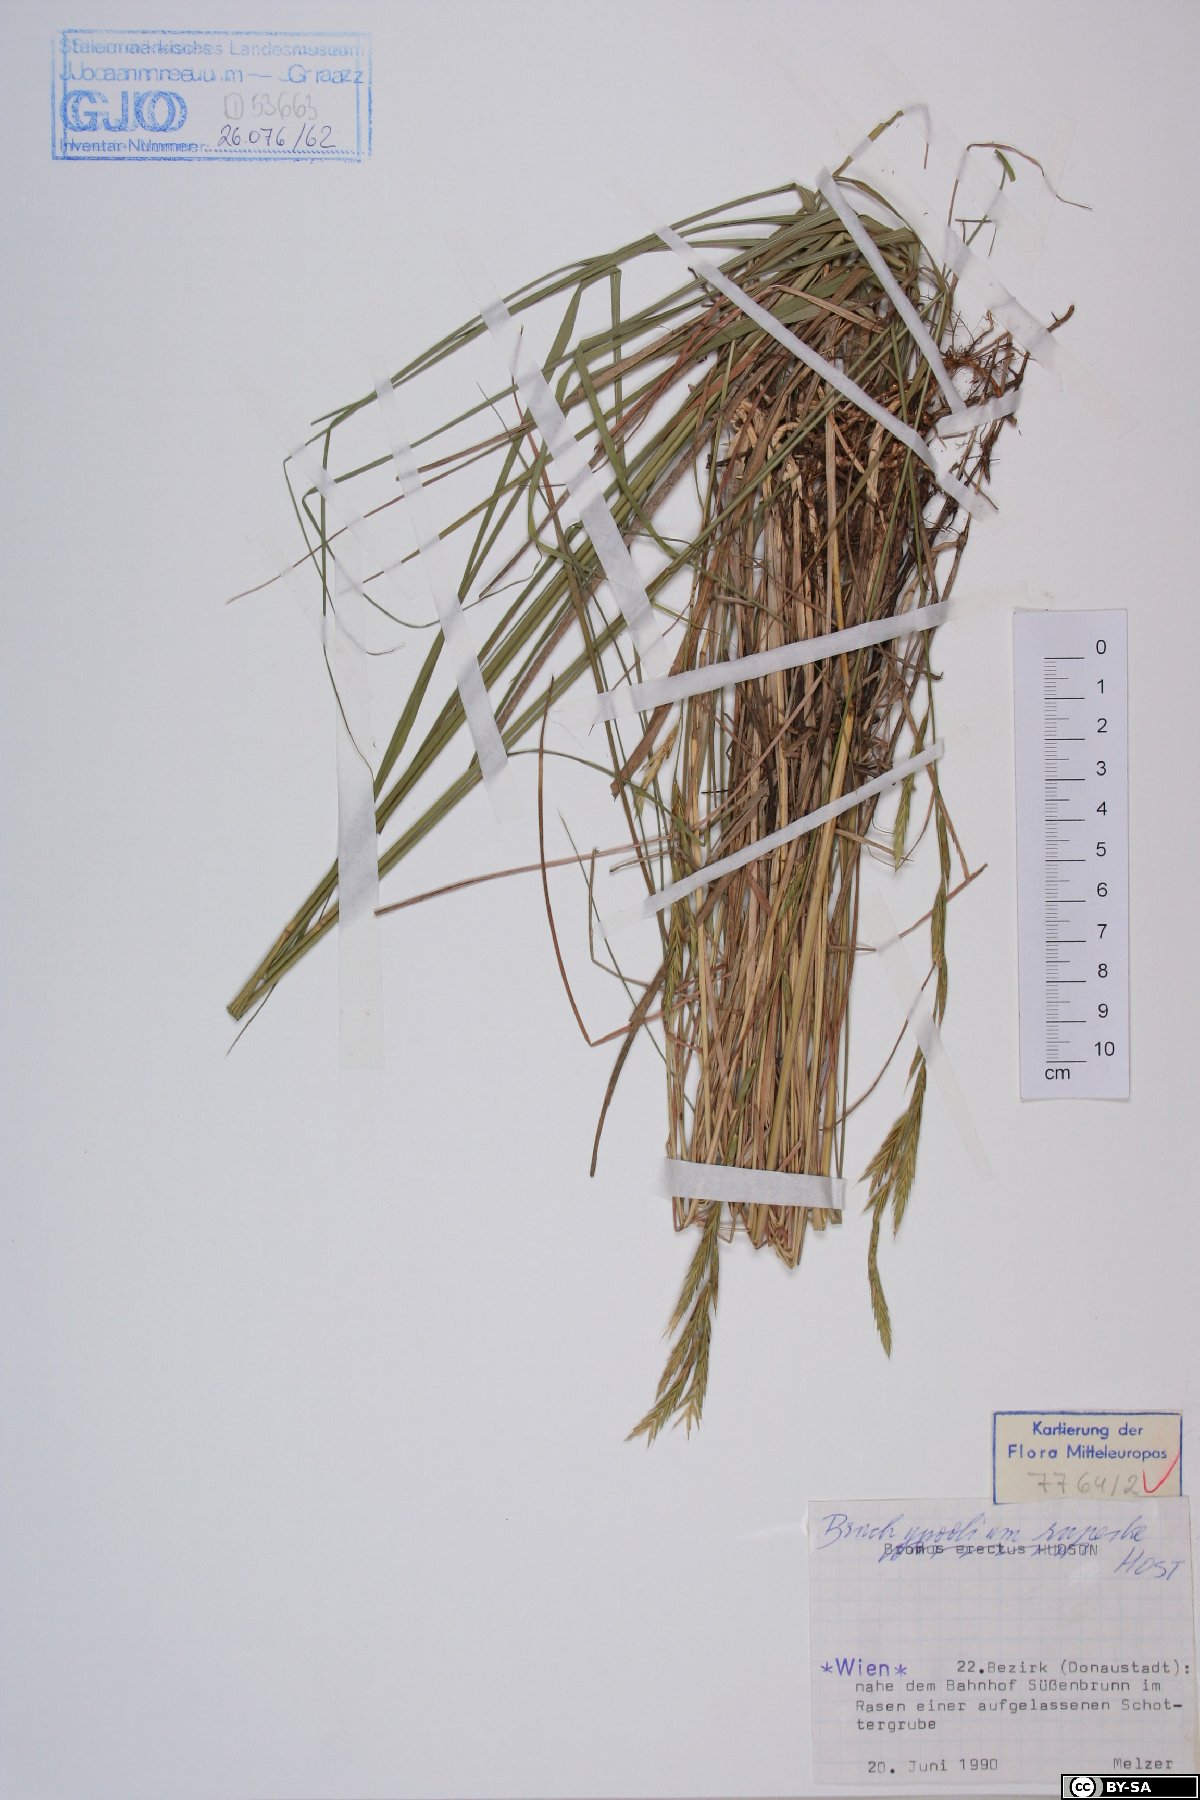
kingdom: Plantae
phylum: Tracheophyta
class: Liliopsida
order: Poales
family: Poaceae
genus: Brachypodium
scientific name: Brachypodium pinnatum
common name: Tor grass
